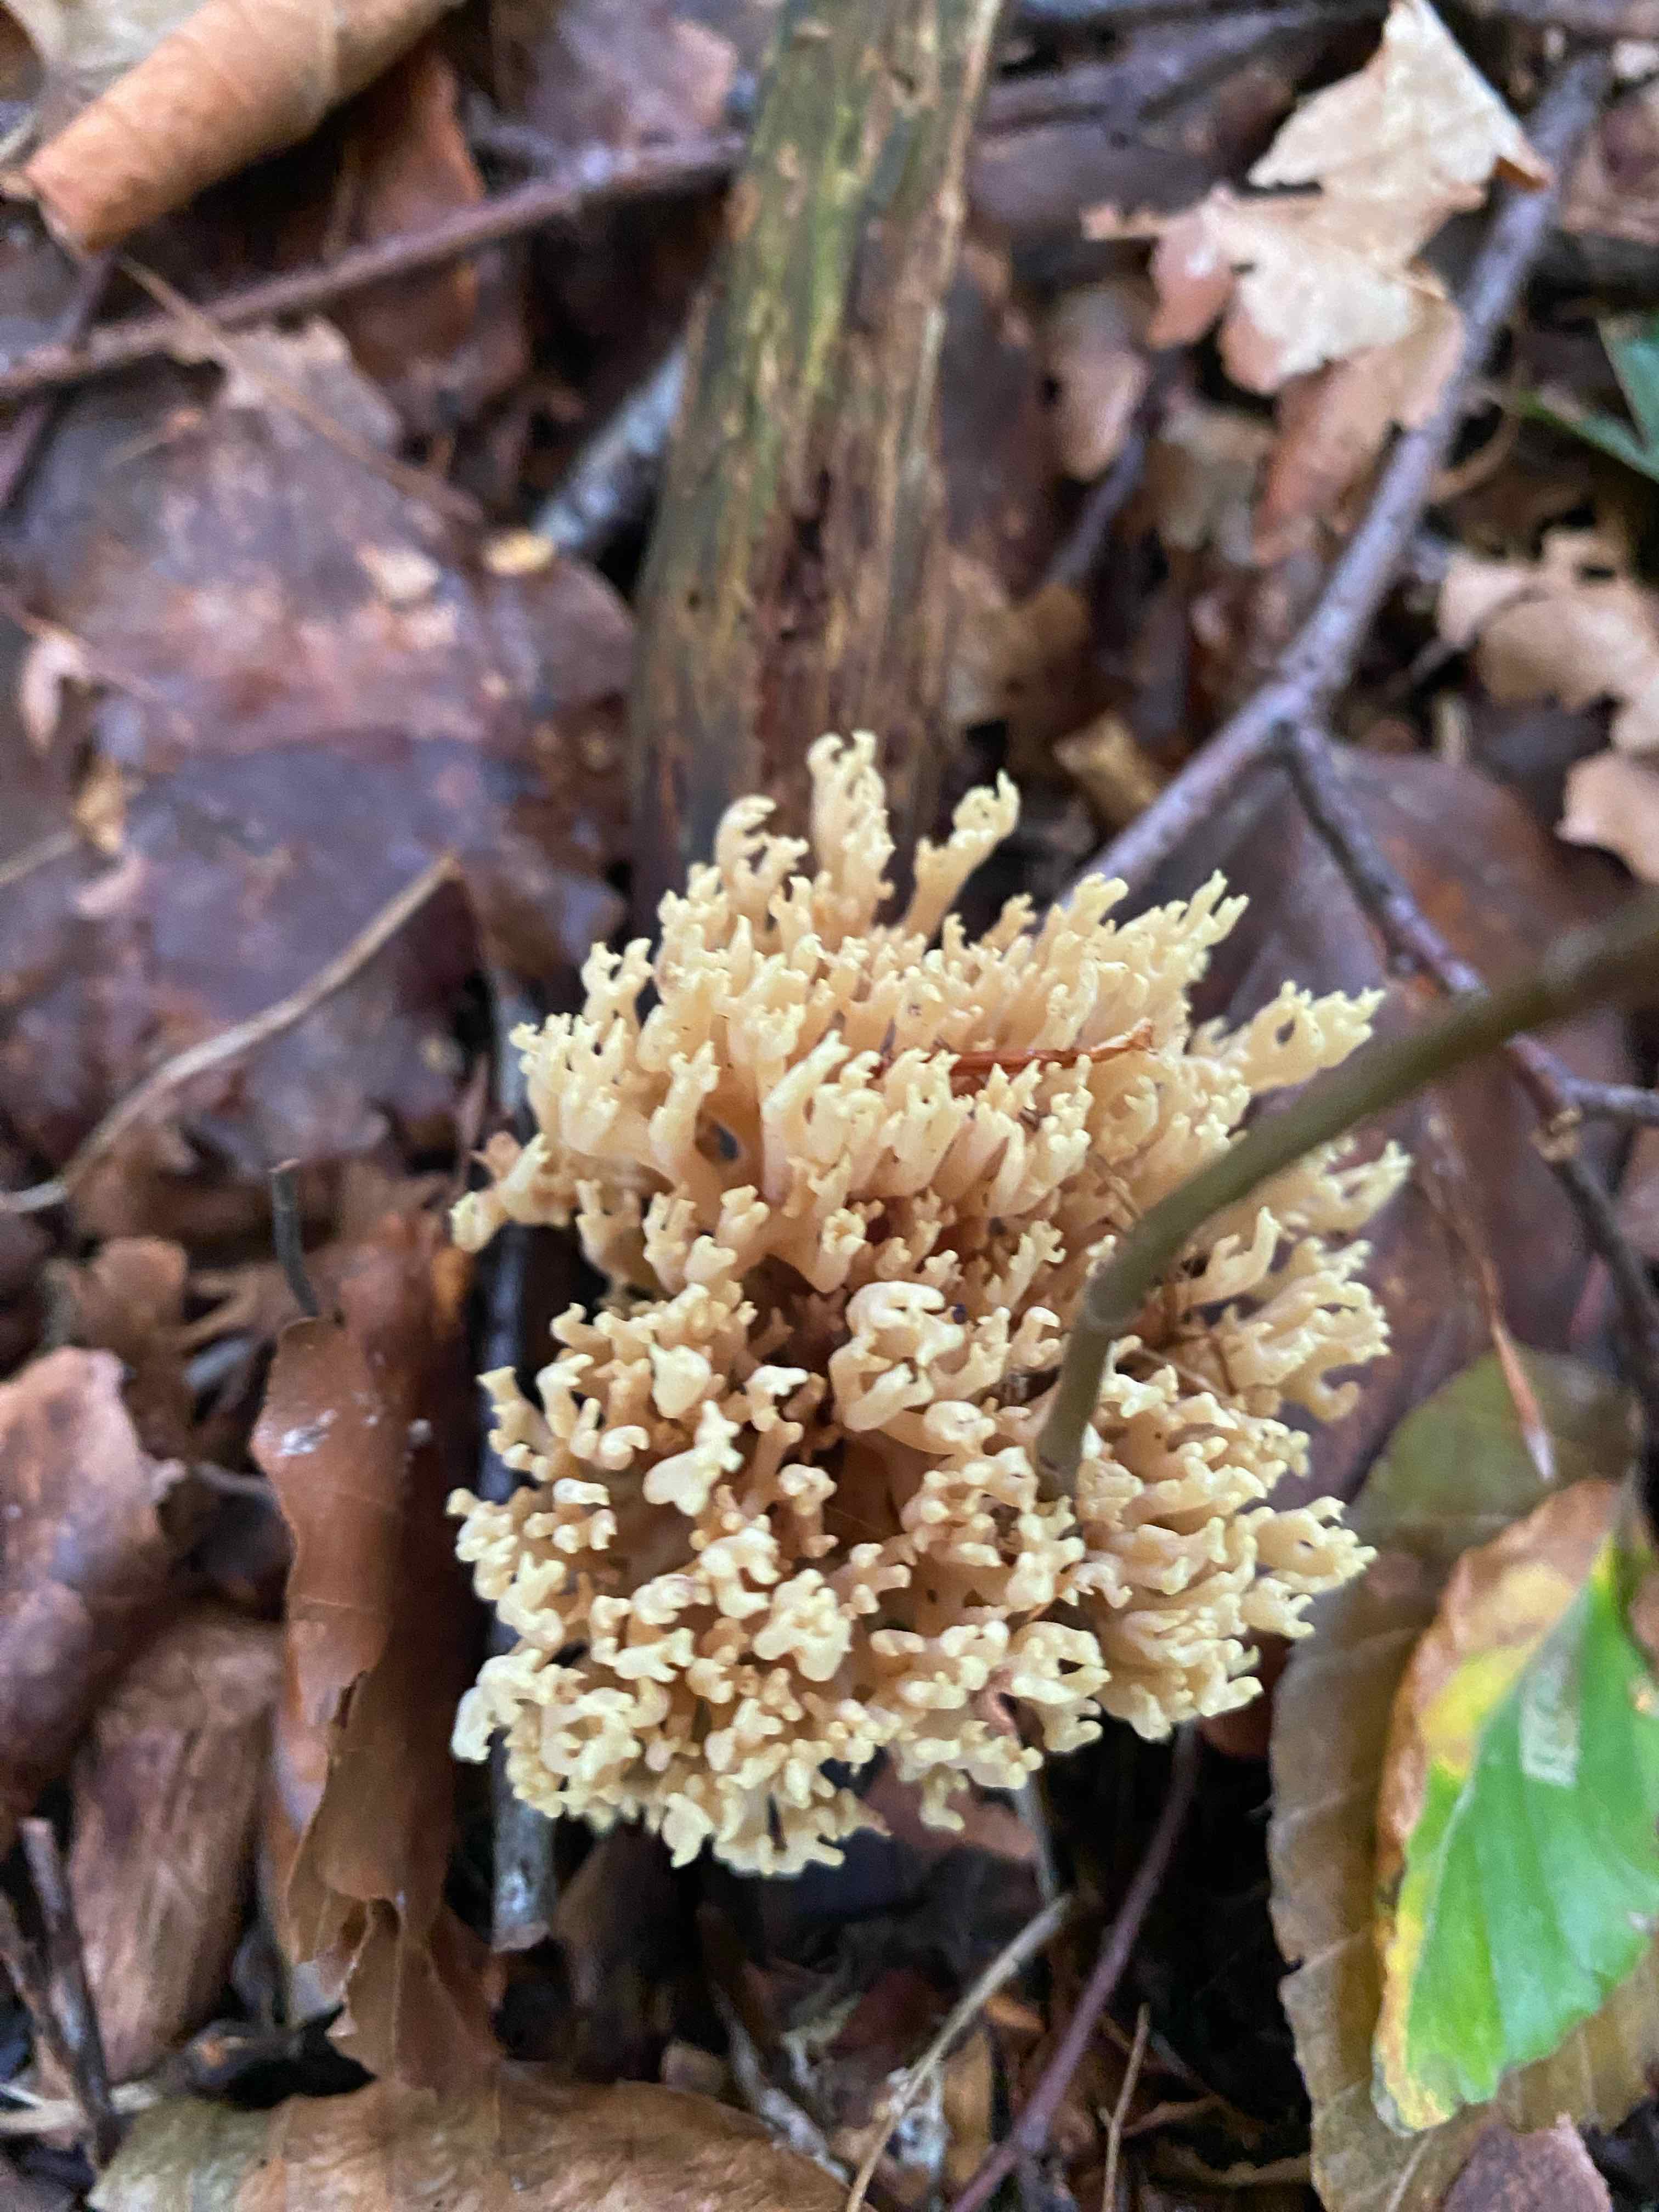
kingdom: Fungi
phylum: Basidiomycota
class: Agaricomycetes
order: Gomphales
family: Gomphaceae
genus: Ramaria
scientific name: Ramaria stricta
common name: rank koralsvamp
